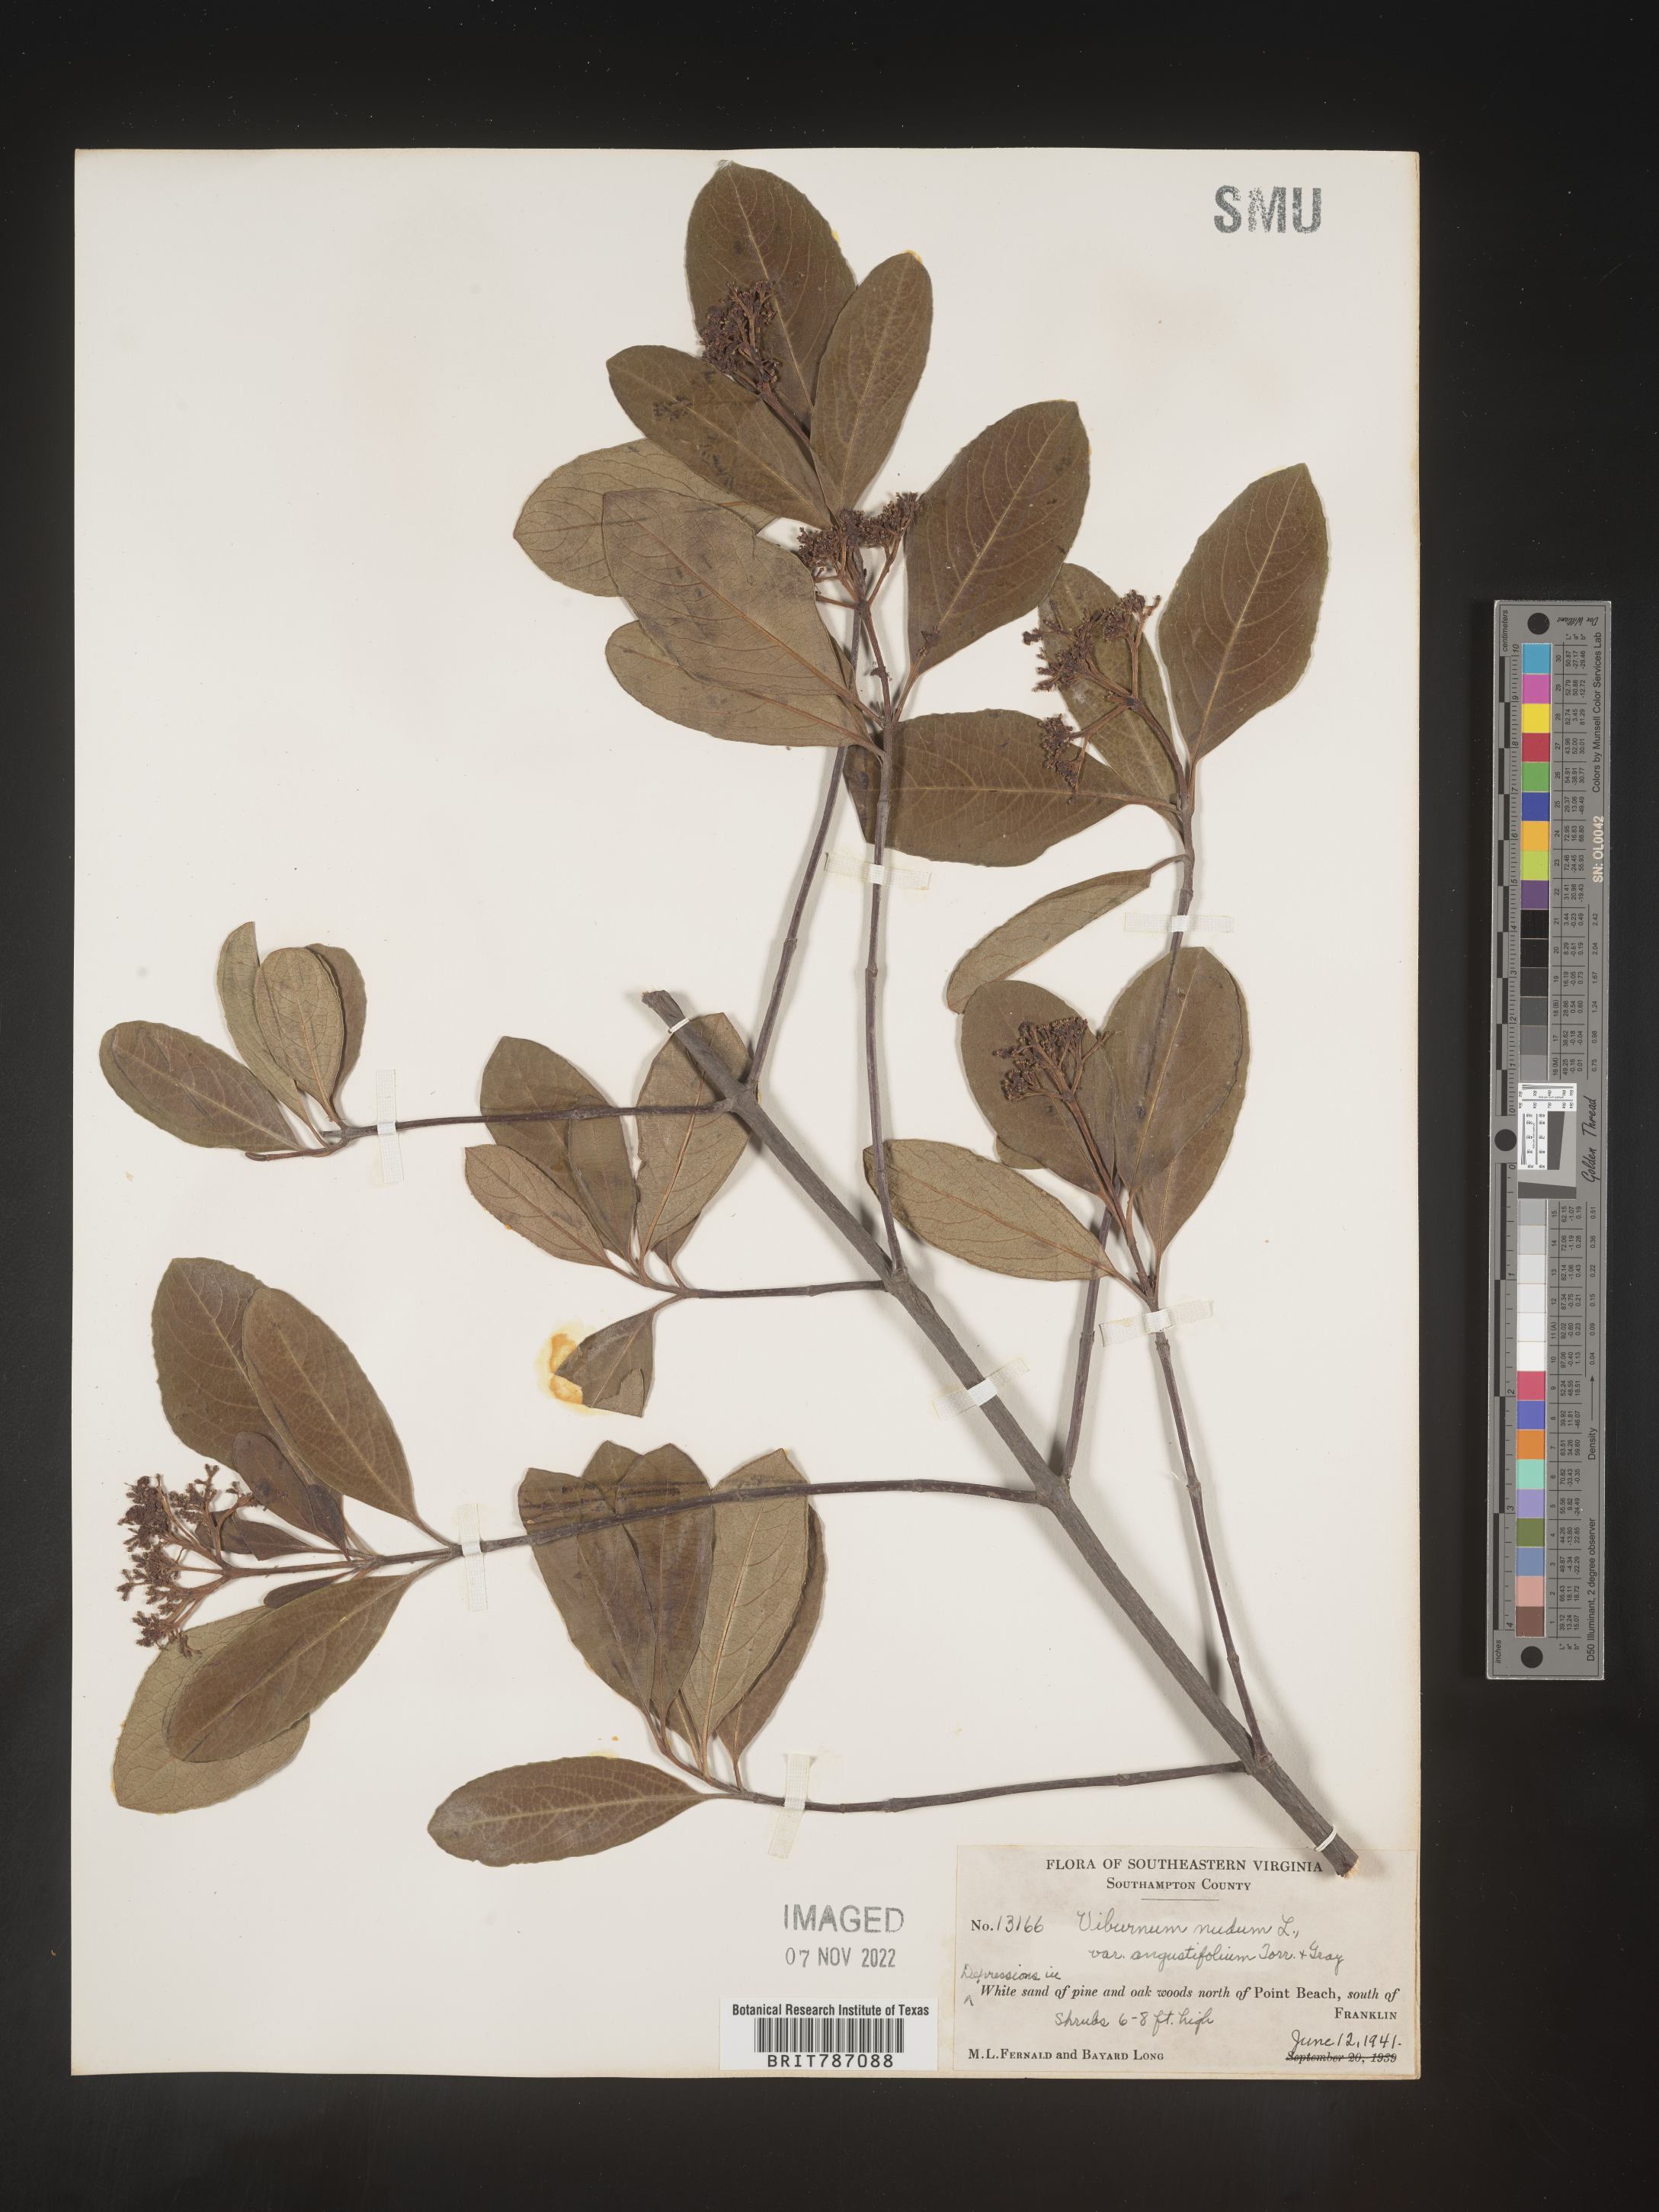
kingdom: Plantae
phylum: Tracheophyta
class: Magnoliopsida
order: Dipsacales
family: Viburnaceae
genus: Viburnum
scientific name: Viburnum nudum
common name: Possum haw
